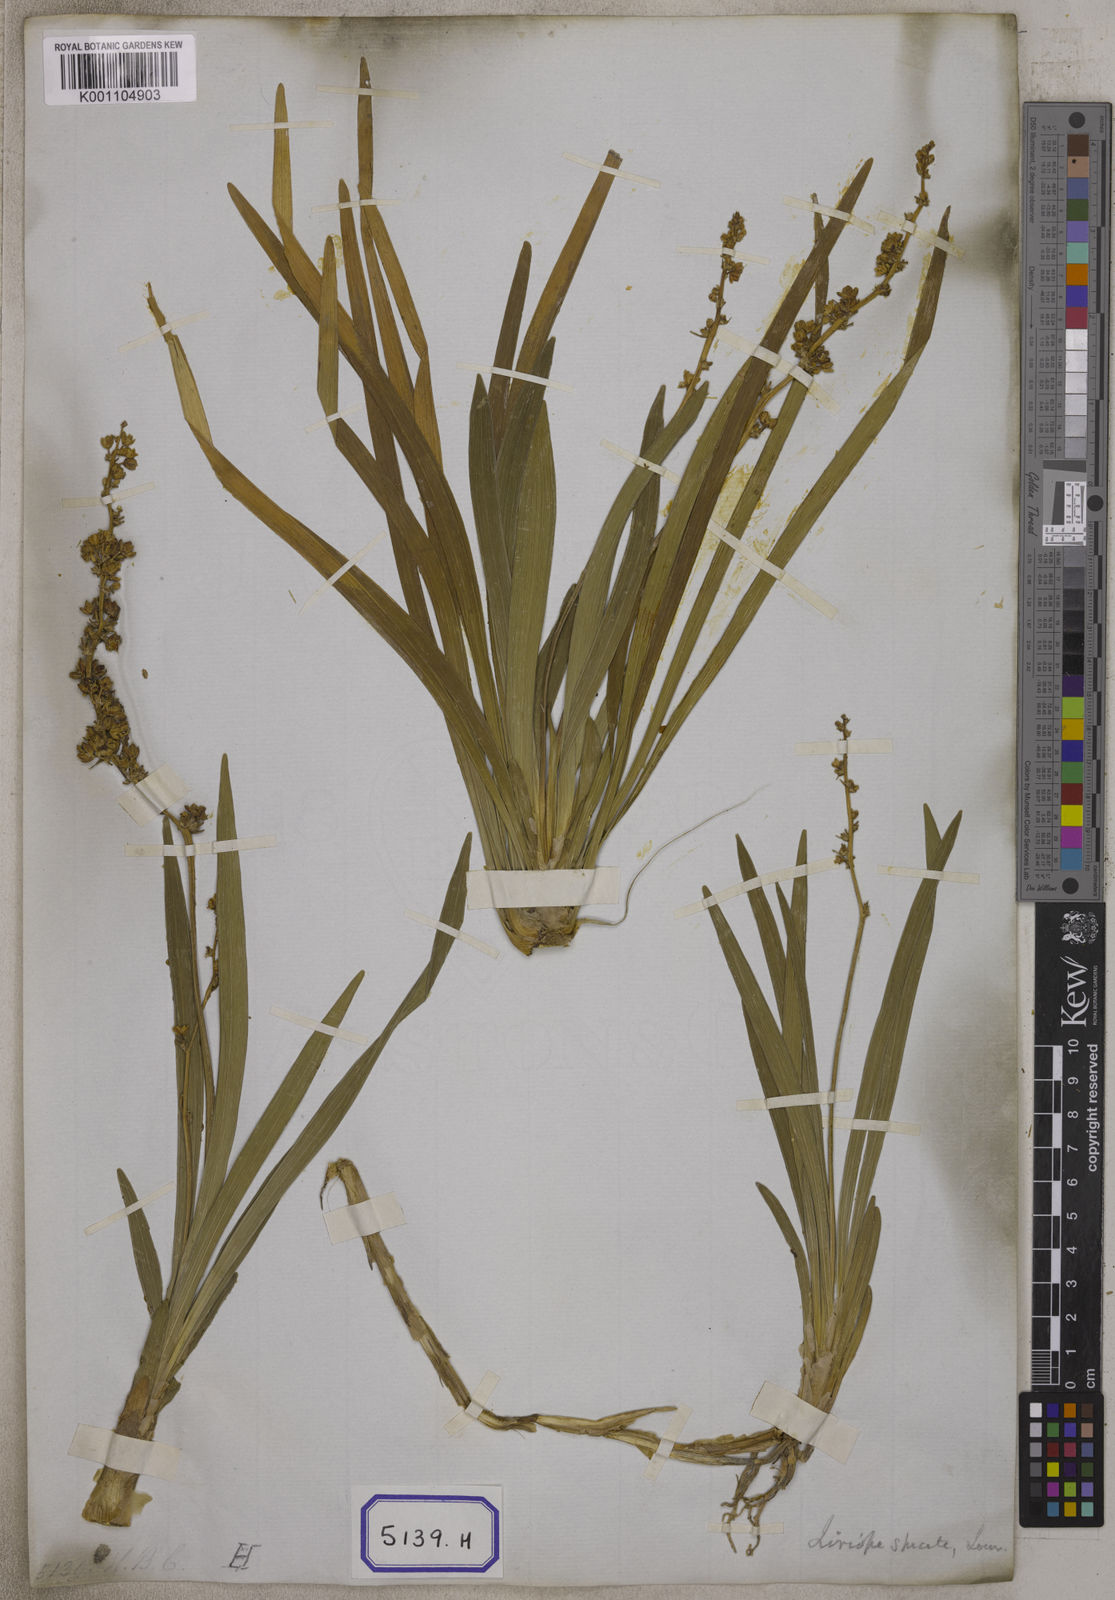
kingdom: Plantae
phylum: Tracheophyta
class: Liliopsida
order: Asparagales
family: Asparagaceae
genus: Ophiopogon
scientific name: Ophiopogon
